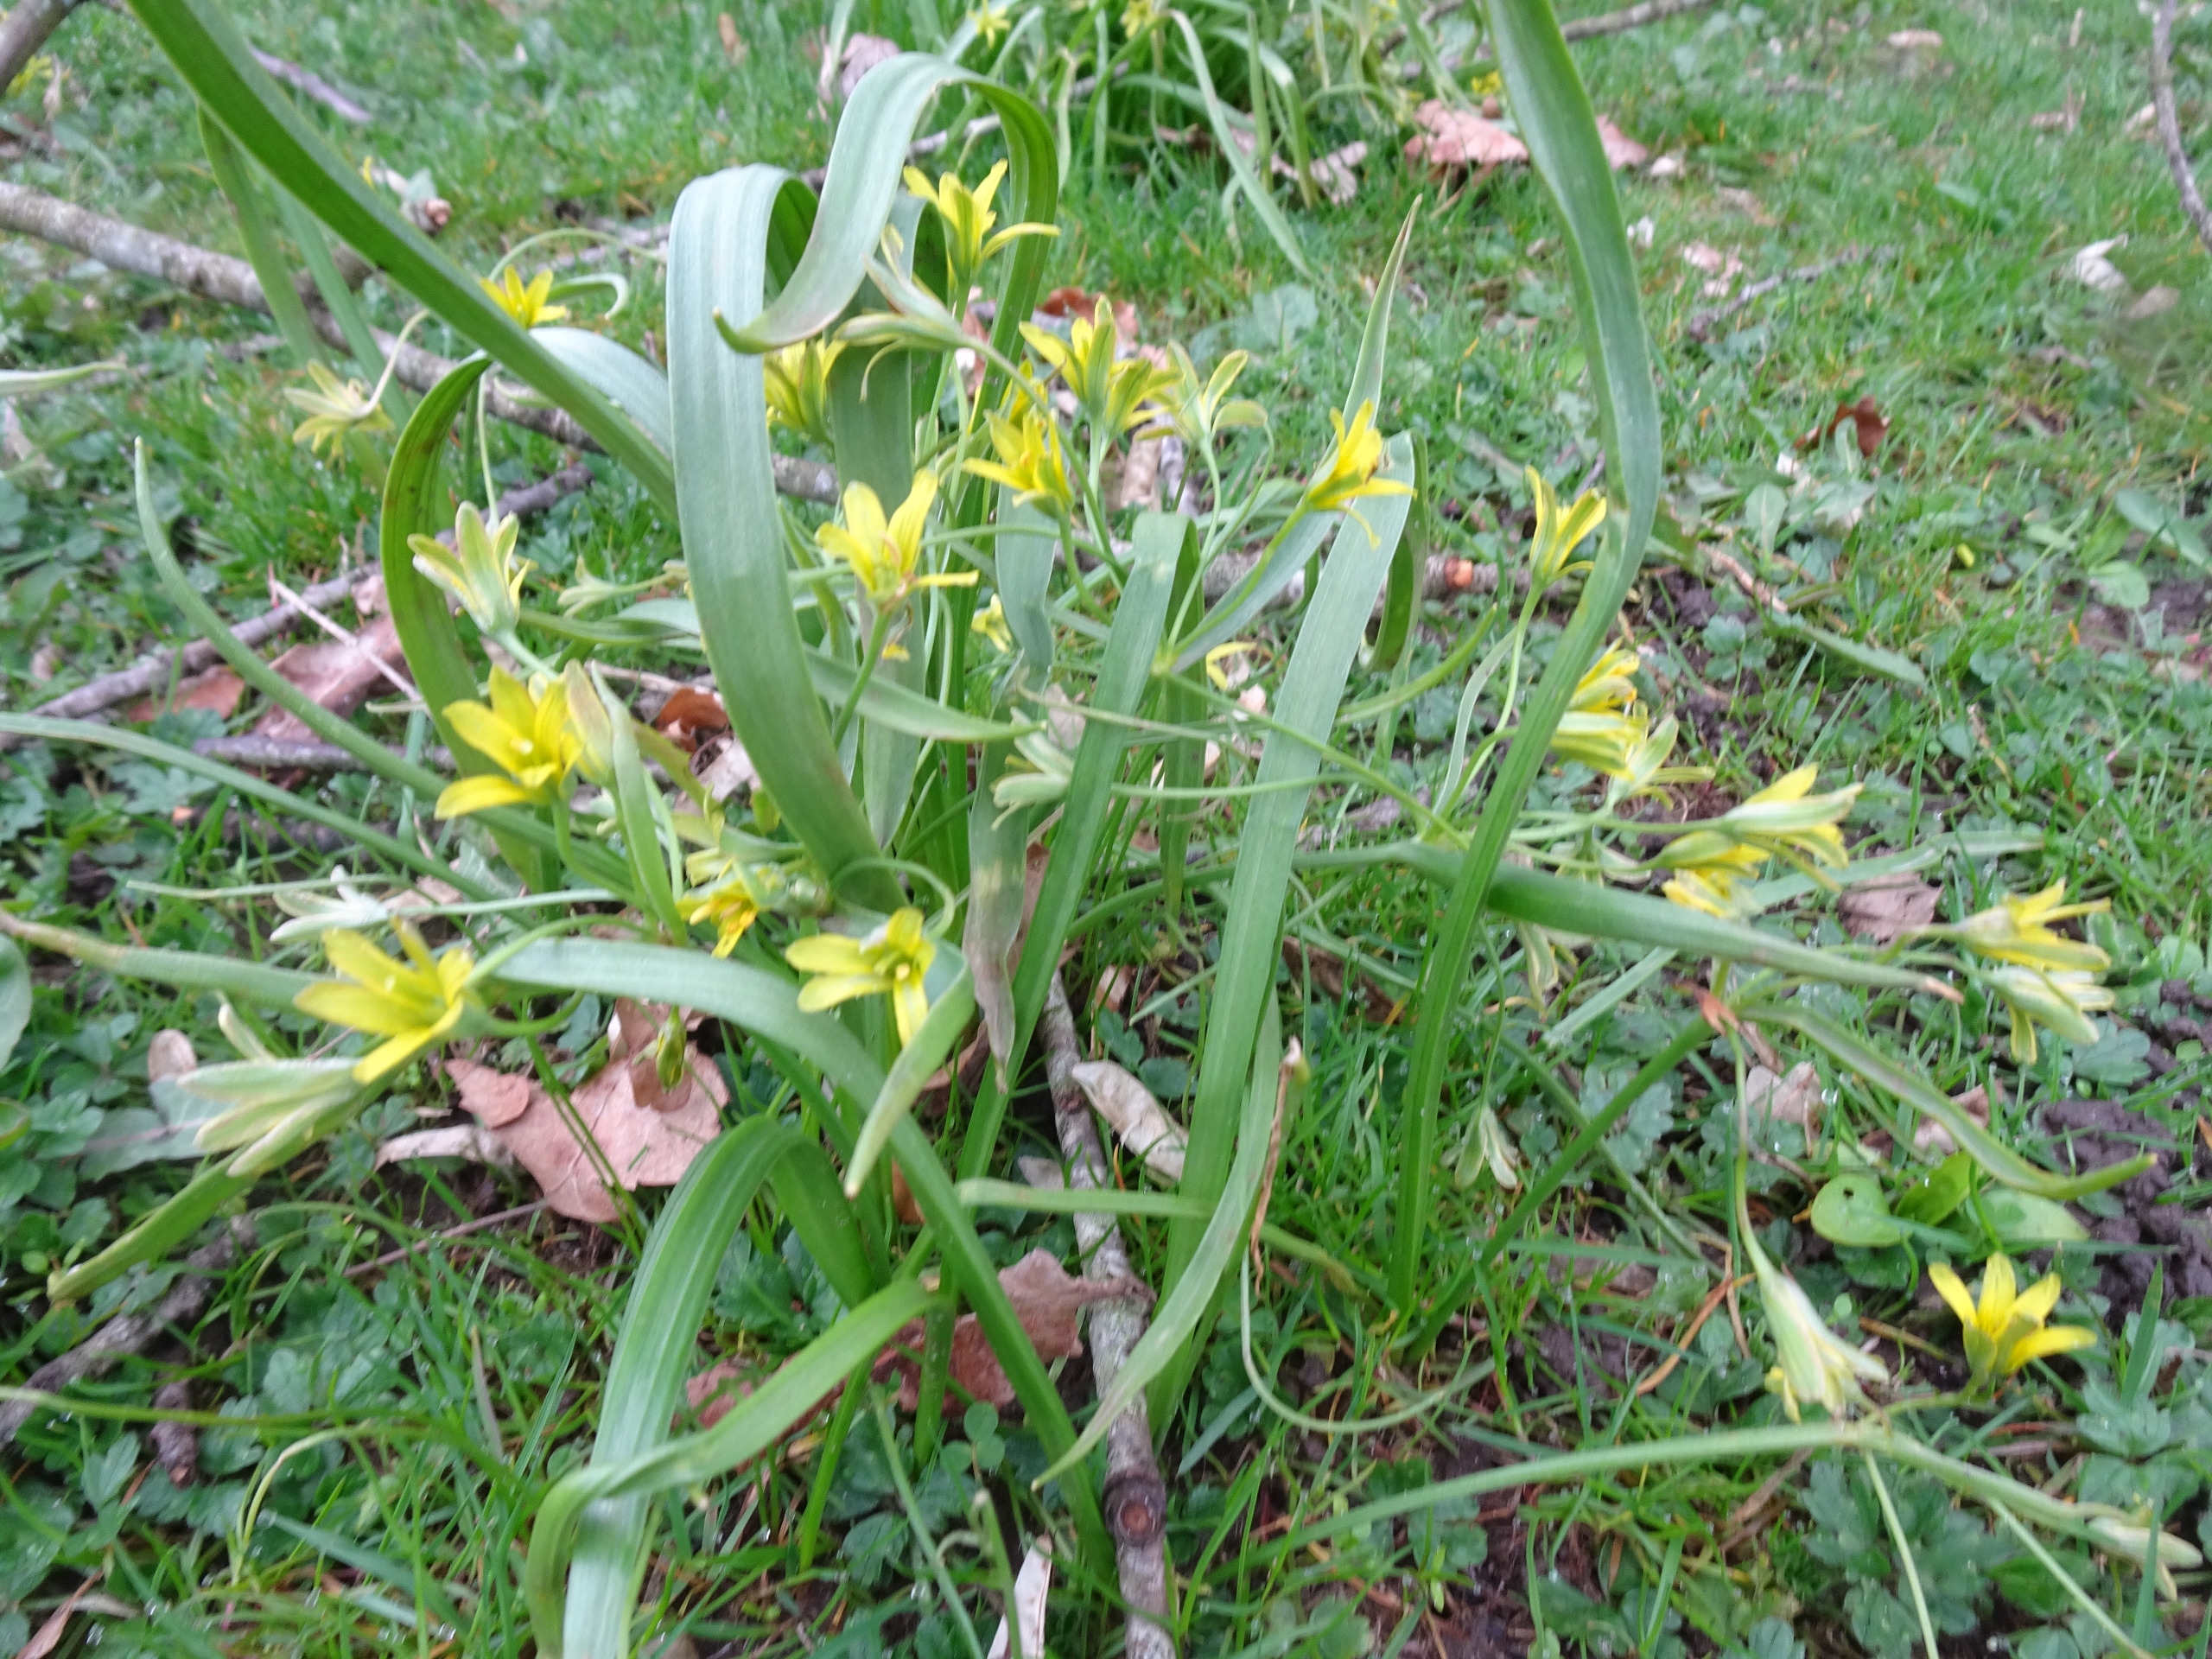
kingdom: Plantae
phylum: Tracheophyta
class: Liliopsida
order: Liliales
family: Liliaceae
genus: Gagea
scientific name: Gagea lutea
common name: Almindelig guldstjerne
